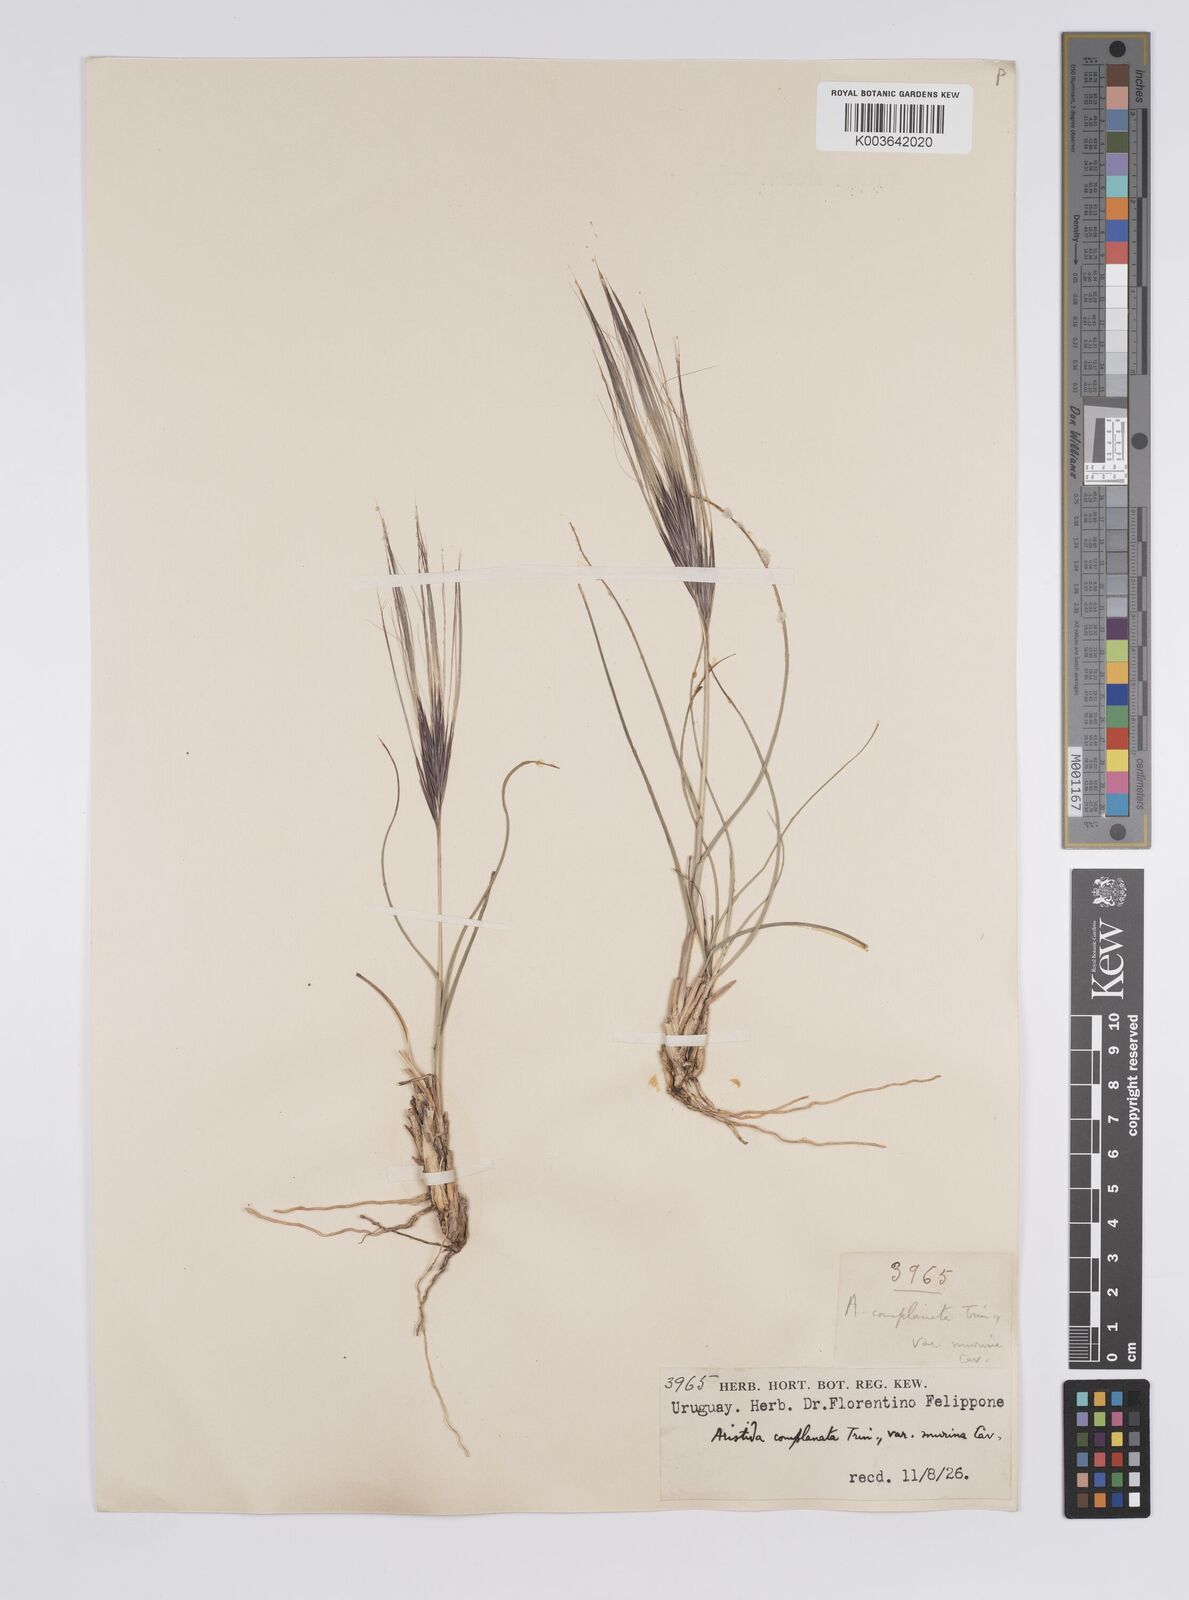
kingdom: Plantae
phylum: Tracheophyta
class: Liliopsida
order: Poales
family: Poaceae
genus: Aristida
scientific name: Aristida murina
